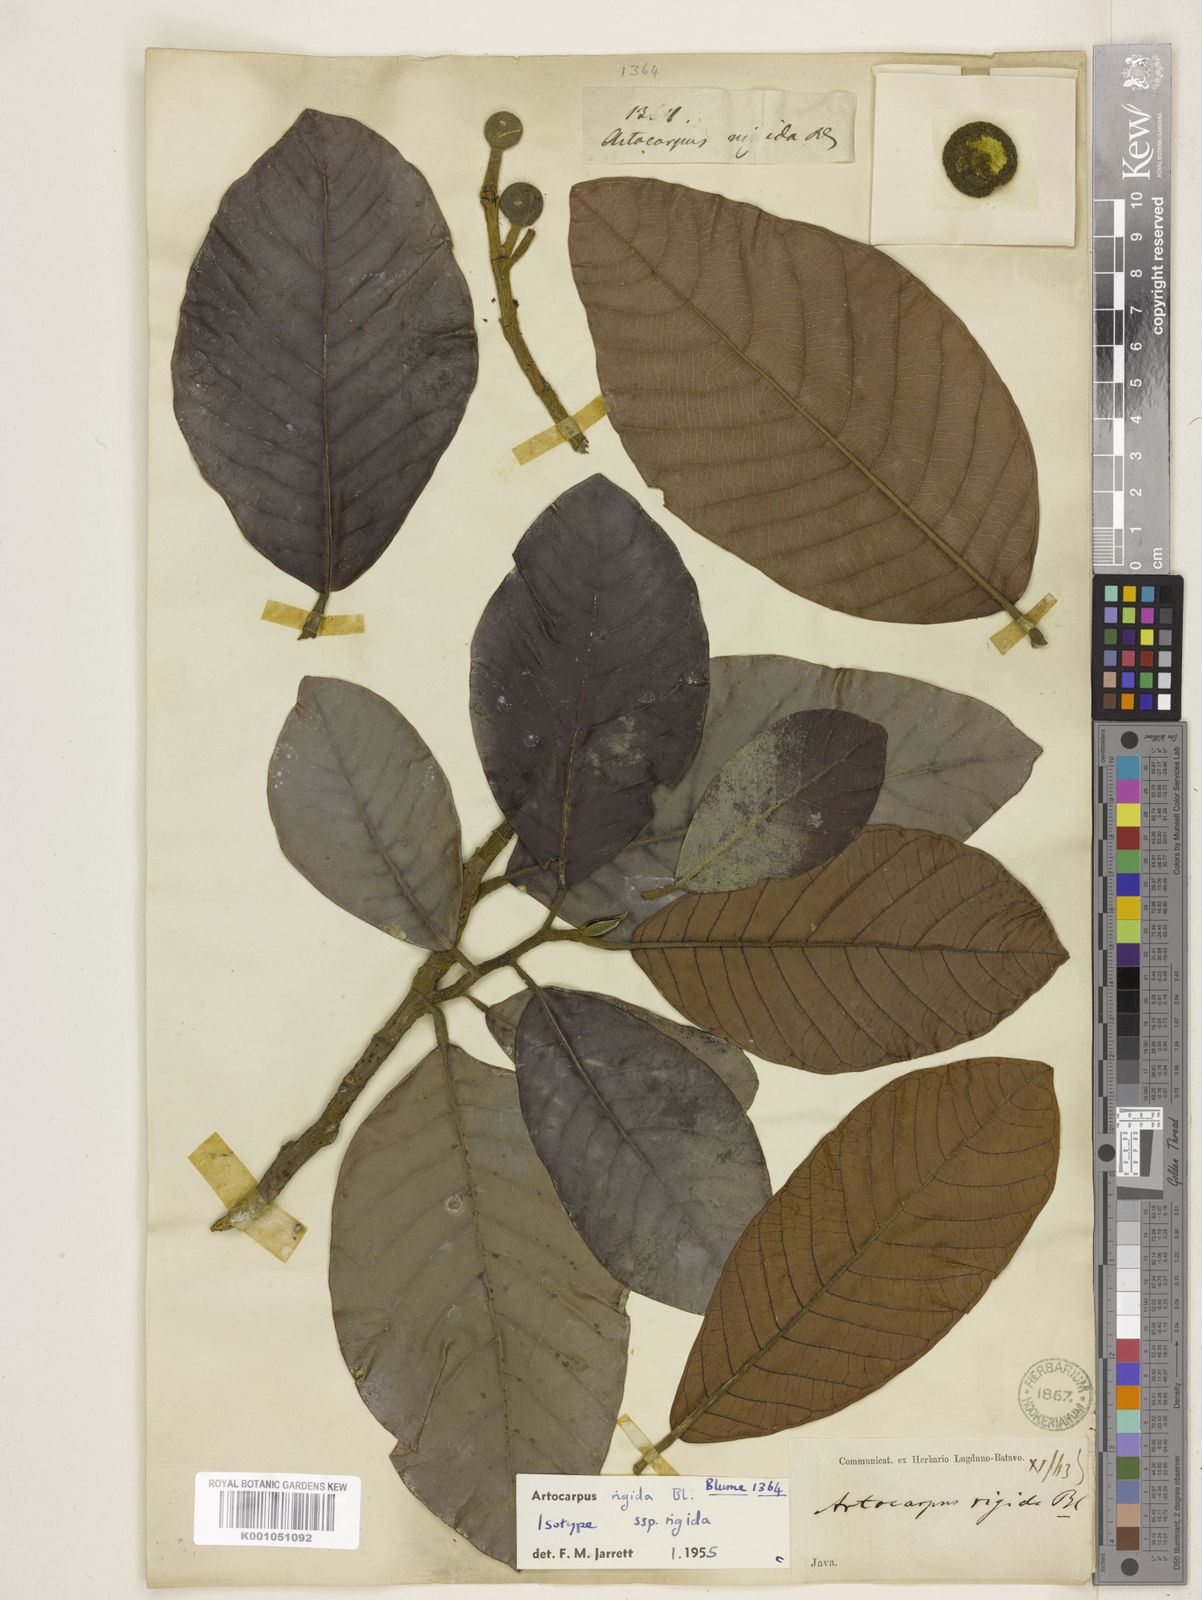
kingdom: Plantae
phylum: Tracheophyta
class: Magnoliopsida
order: Rosales
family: Moraceae
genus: Artocarpus
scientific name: Artocarpus rigidus
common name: Monkey-jack
